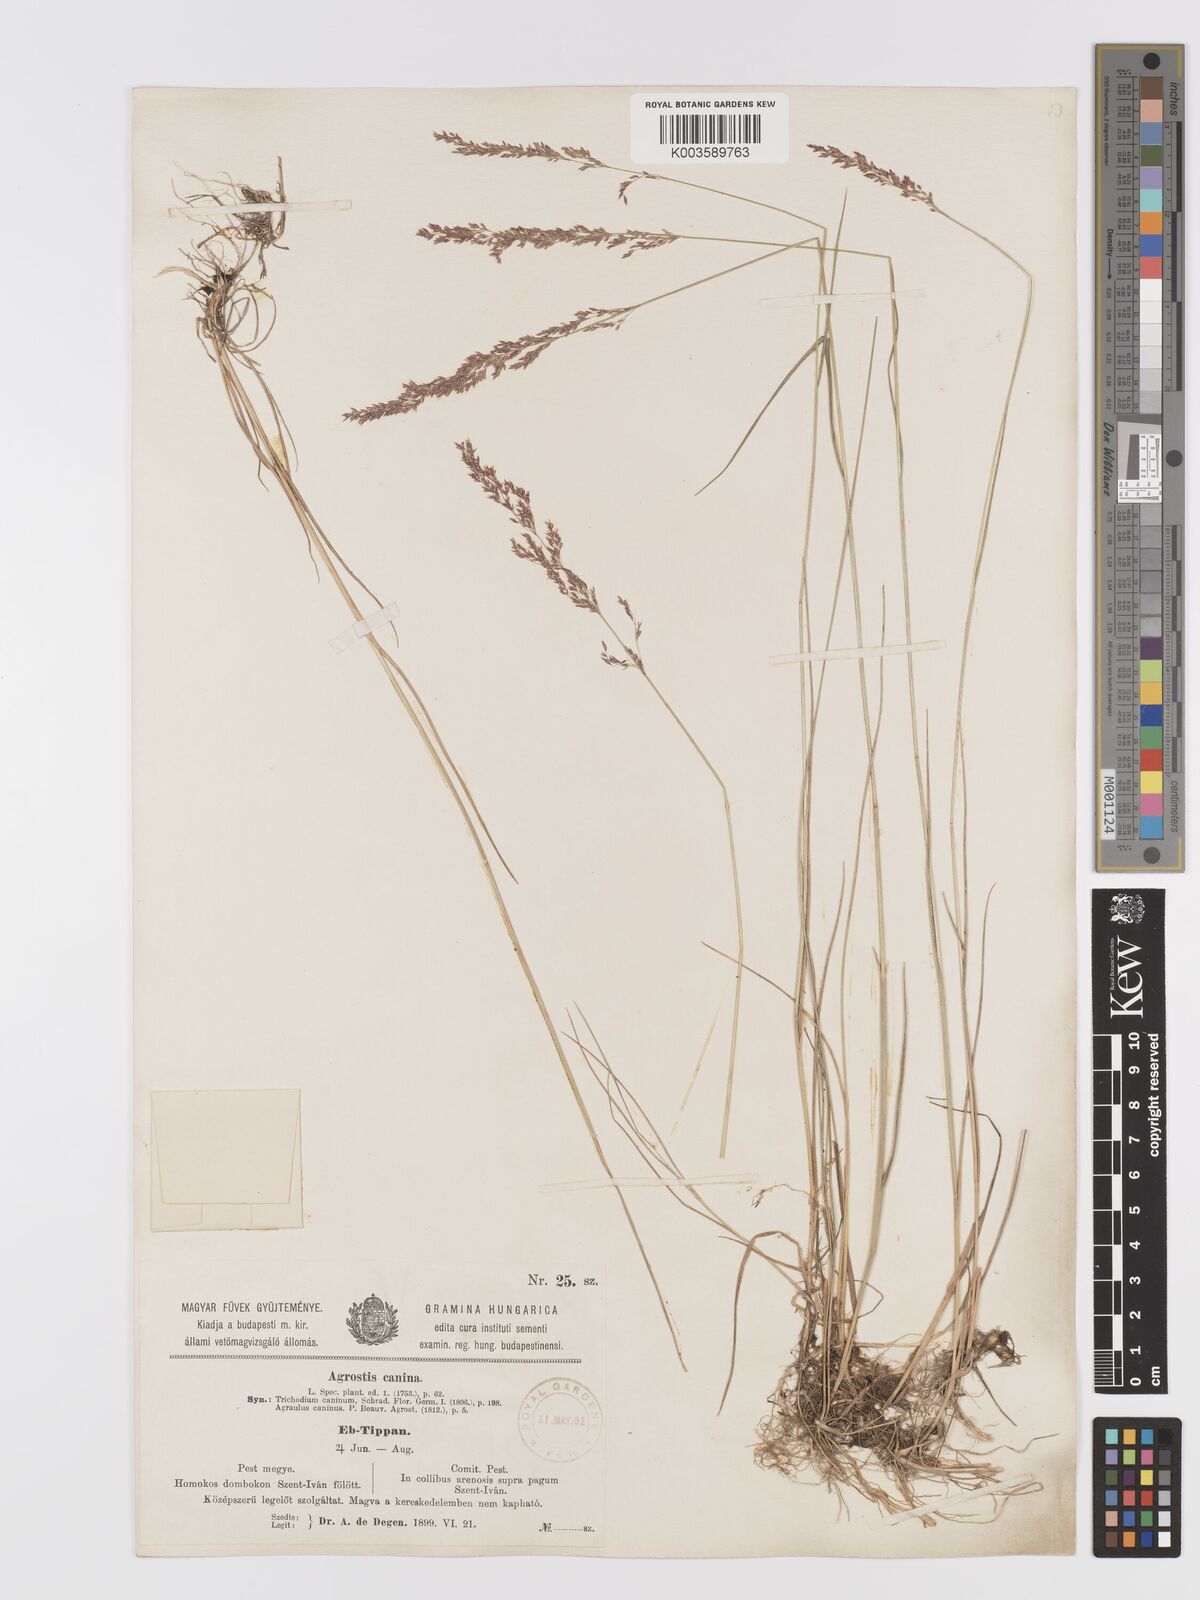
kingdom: Plantae
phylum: Tracheophyta
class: Liliopsida
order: Poales
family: Poaceae
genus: Agrostis
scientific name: Agrostis
